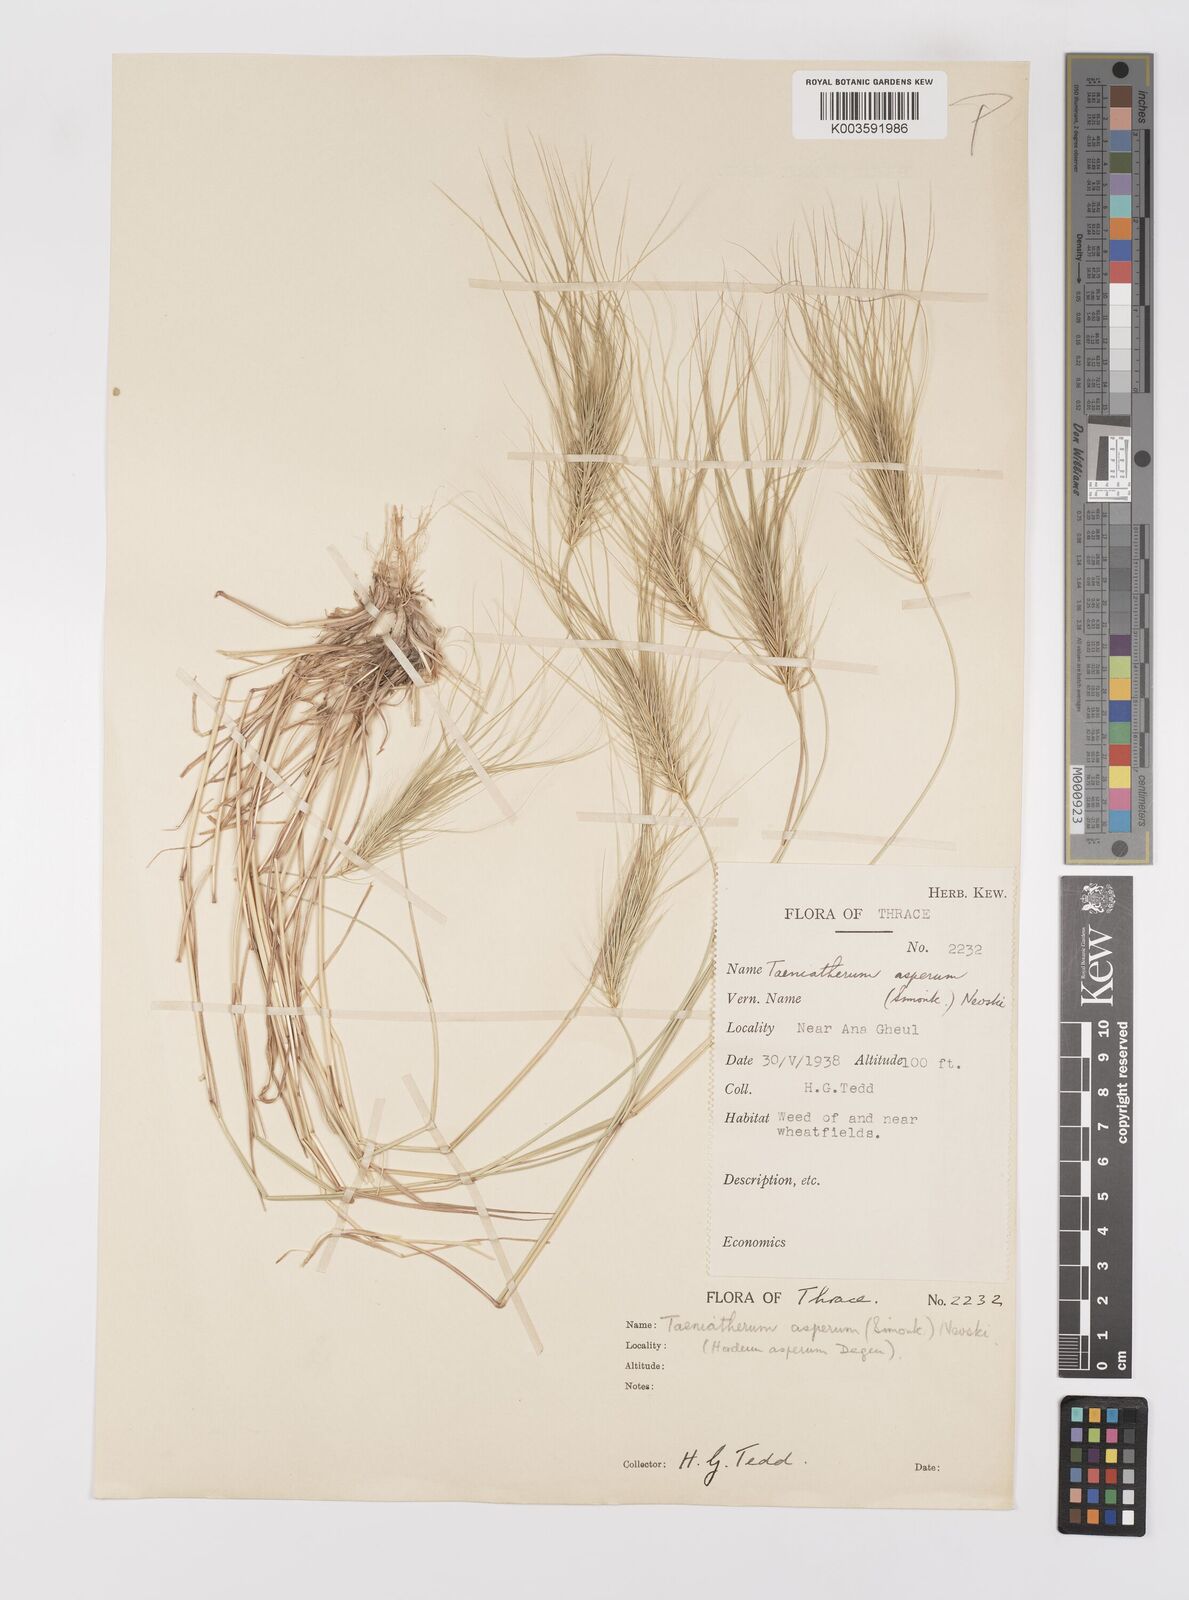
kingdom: Plantae
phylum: Tracheophyta
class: Liliopsida
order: Poales
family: Poaceae
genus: Taeniatherum
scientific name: Taeniatherum caput-medusae
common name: Medusahead
